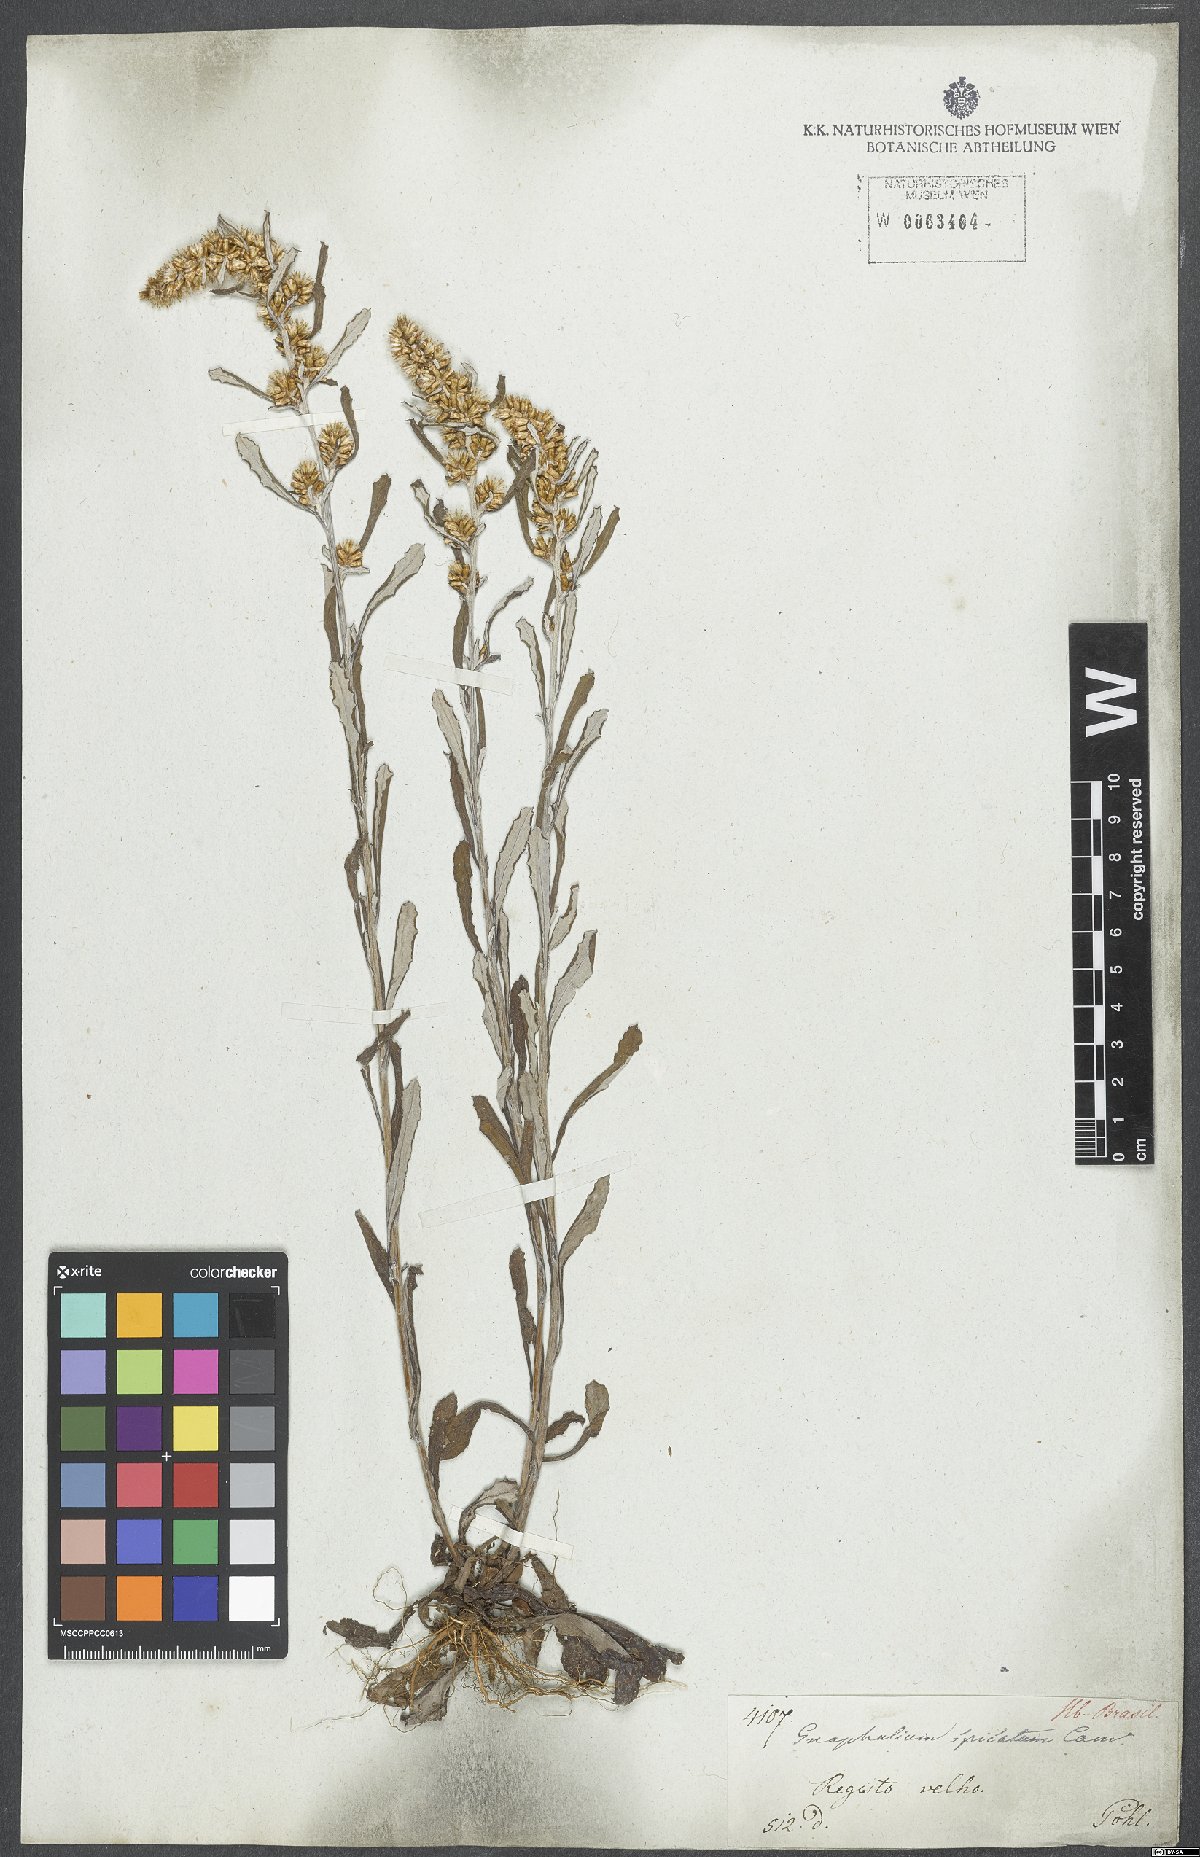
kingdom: Plantae
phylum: Tracheophyta
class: Magnoliopsida
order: Asterales
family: Asteraceae
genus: Gamochaeta
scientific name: Gamochaeta americana
